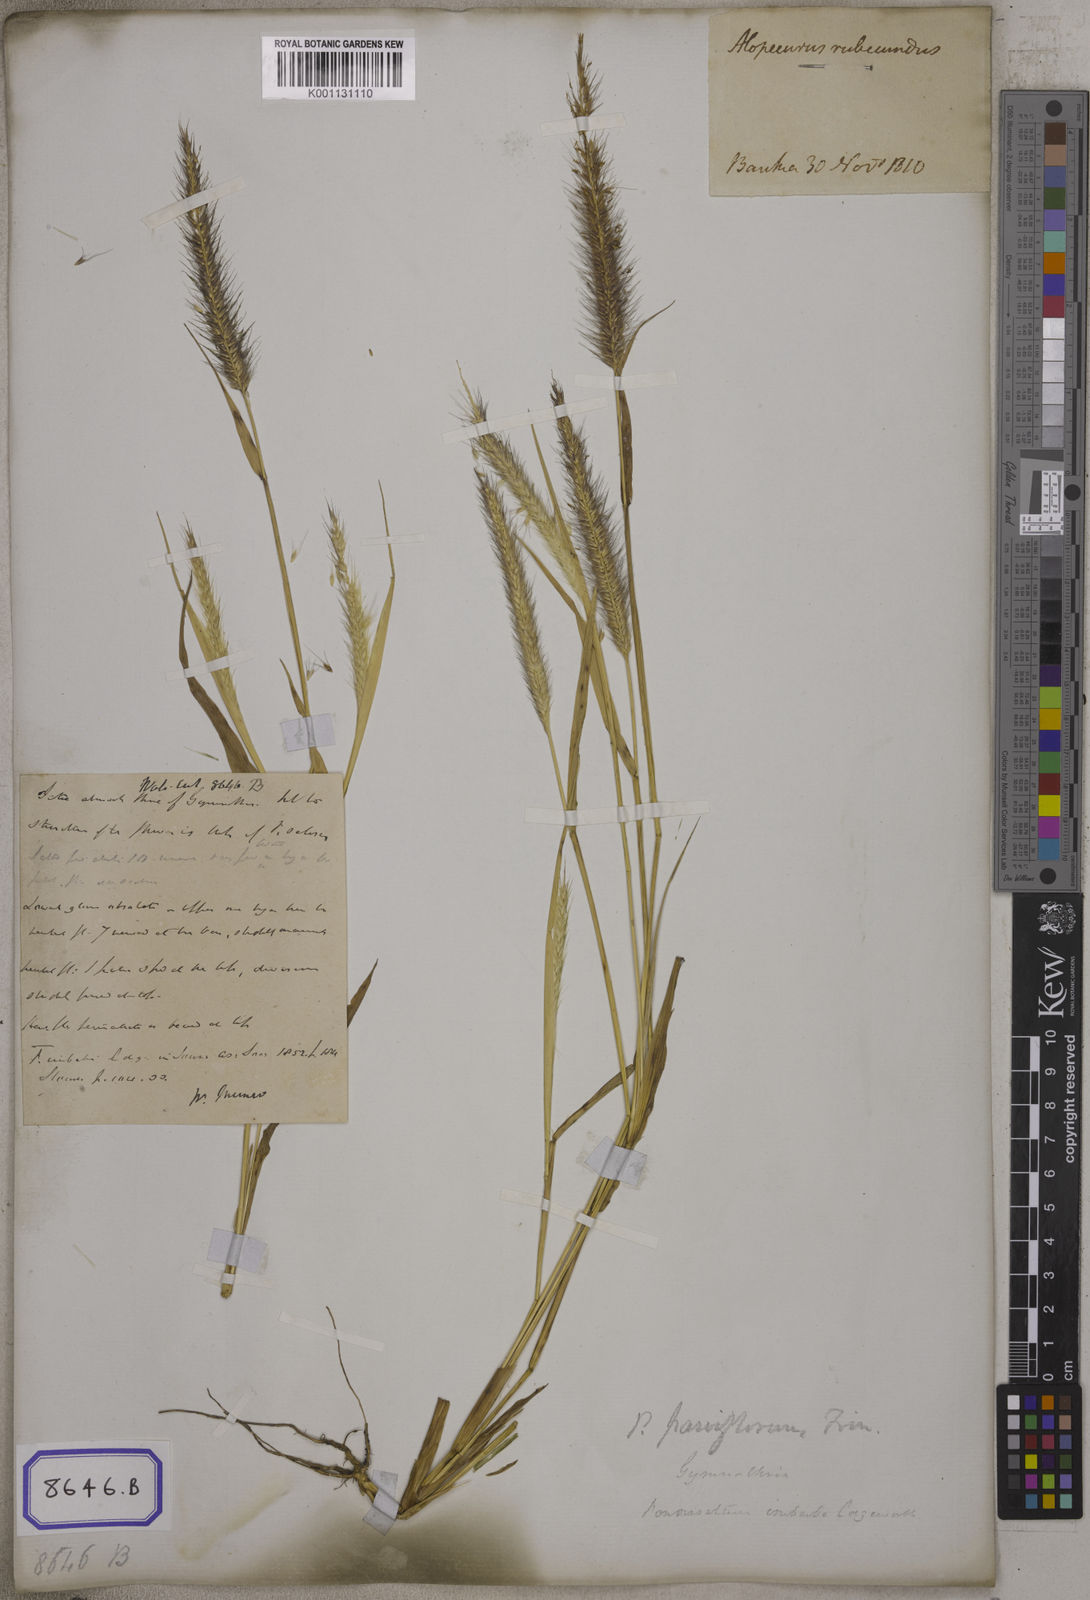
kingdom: Plantae
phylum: Tracheophyta
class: Liliopsida
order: Poales
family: Poaceae
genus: Cenchrus
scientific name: Cenchrus Pennisetum spec
